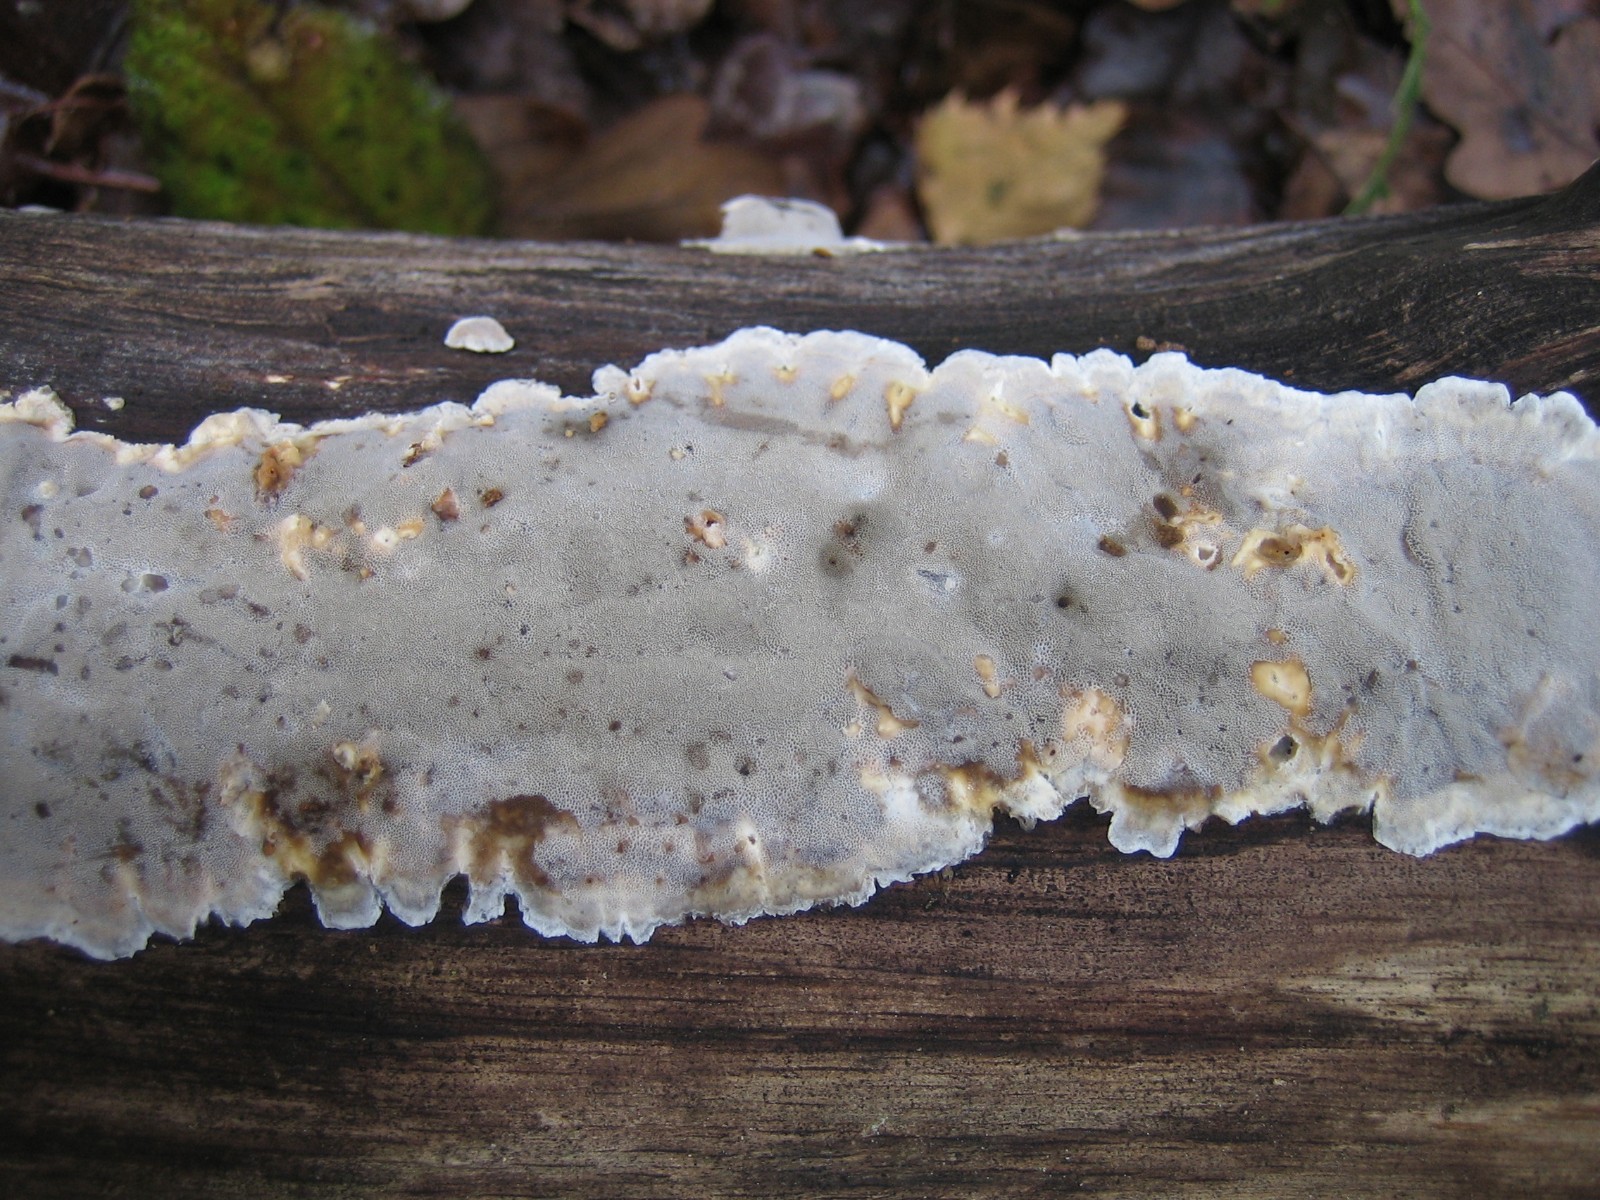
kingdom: Fungi
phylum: Basidiomycota
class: Agaricomycetes
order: Polyporales
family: Phanerochaetaceae
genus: Bjerkandera
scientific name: Bjerkandera adusta
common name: sveden sodporesvamp
